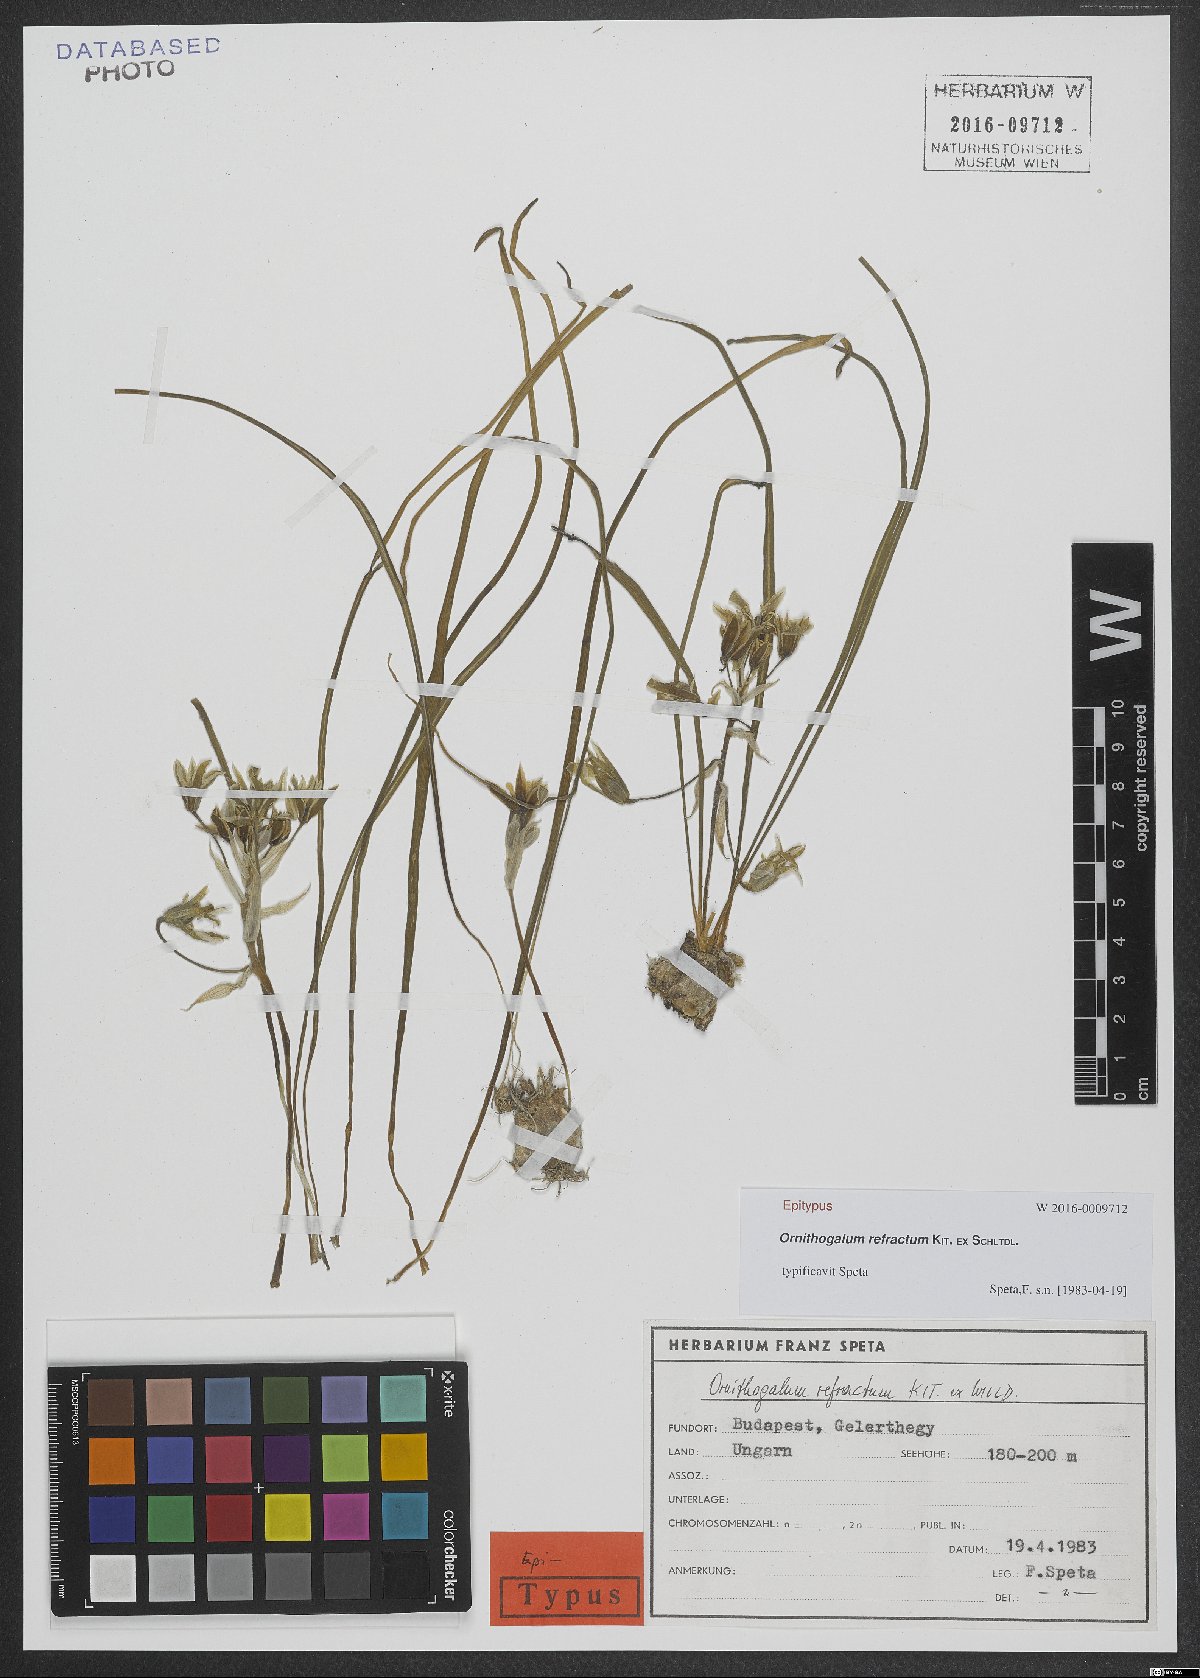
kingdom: Plantae
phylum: Tracheophyta
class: Liliopsida
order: Asparagales
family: Asparagaceae
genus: Ornithogalum
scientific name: Ornithogalum refractum
